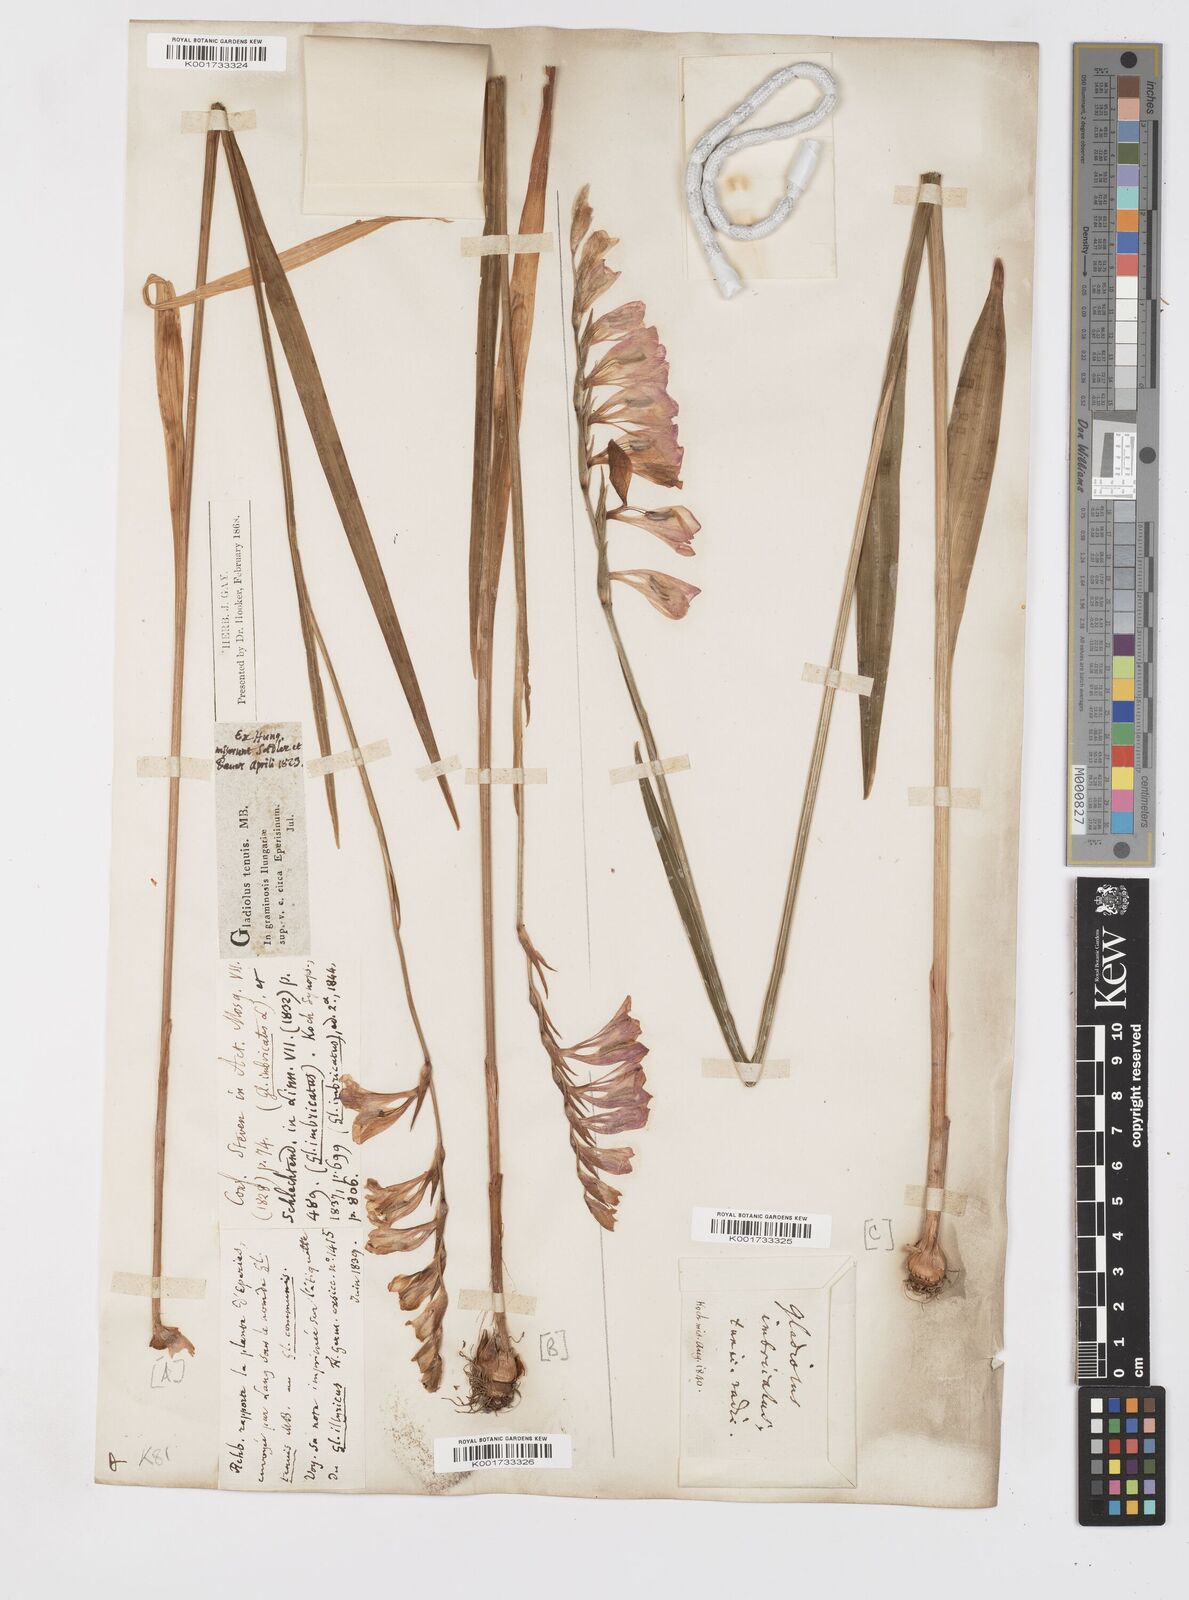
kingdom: Plantae
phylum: Tracheophyta
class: Liliopsida
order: Asparagales
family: Iridaceae
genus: Gladiolus
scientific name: Gladiolus imbricatus
